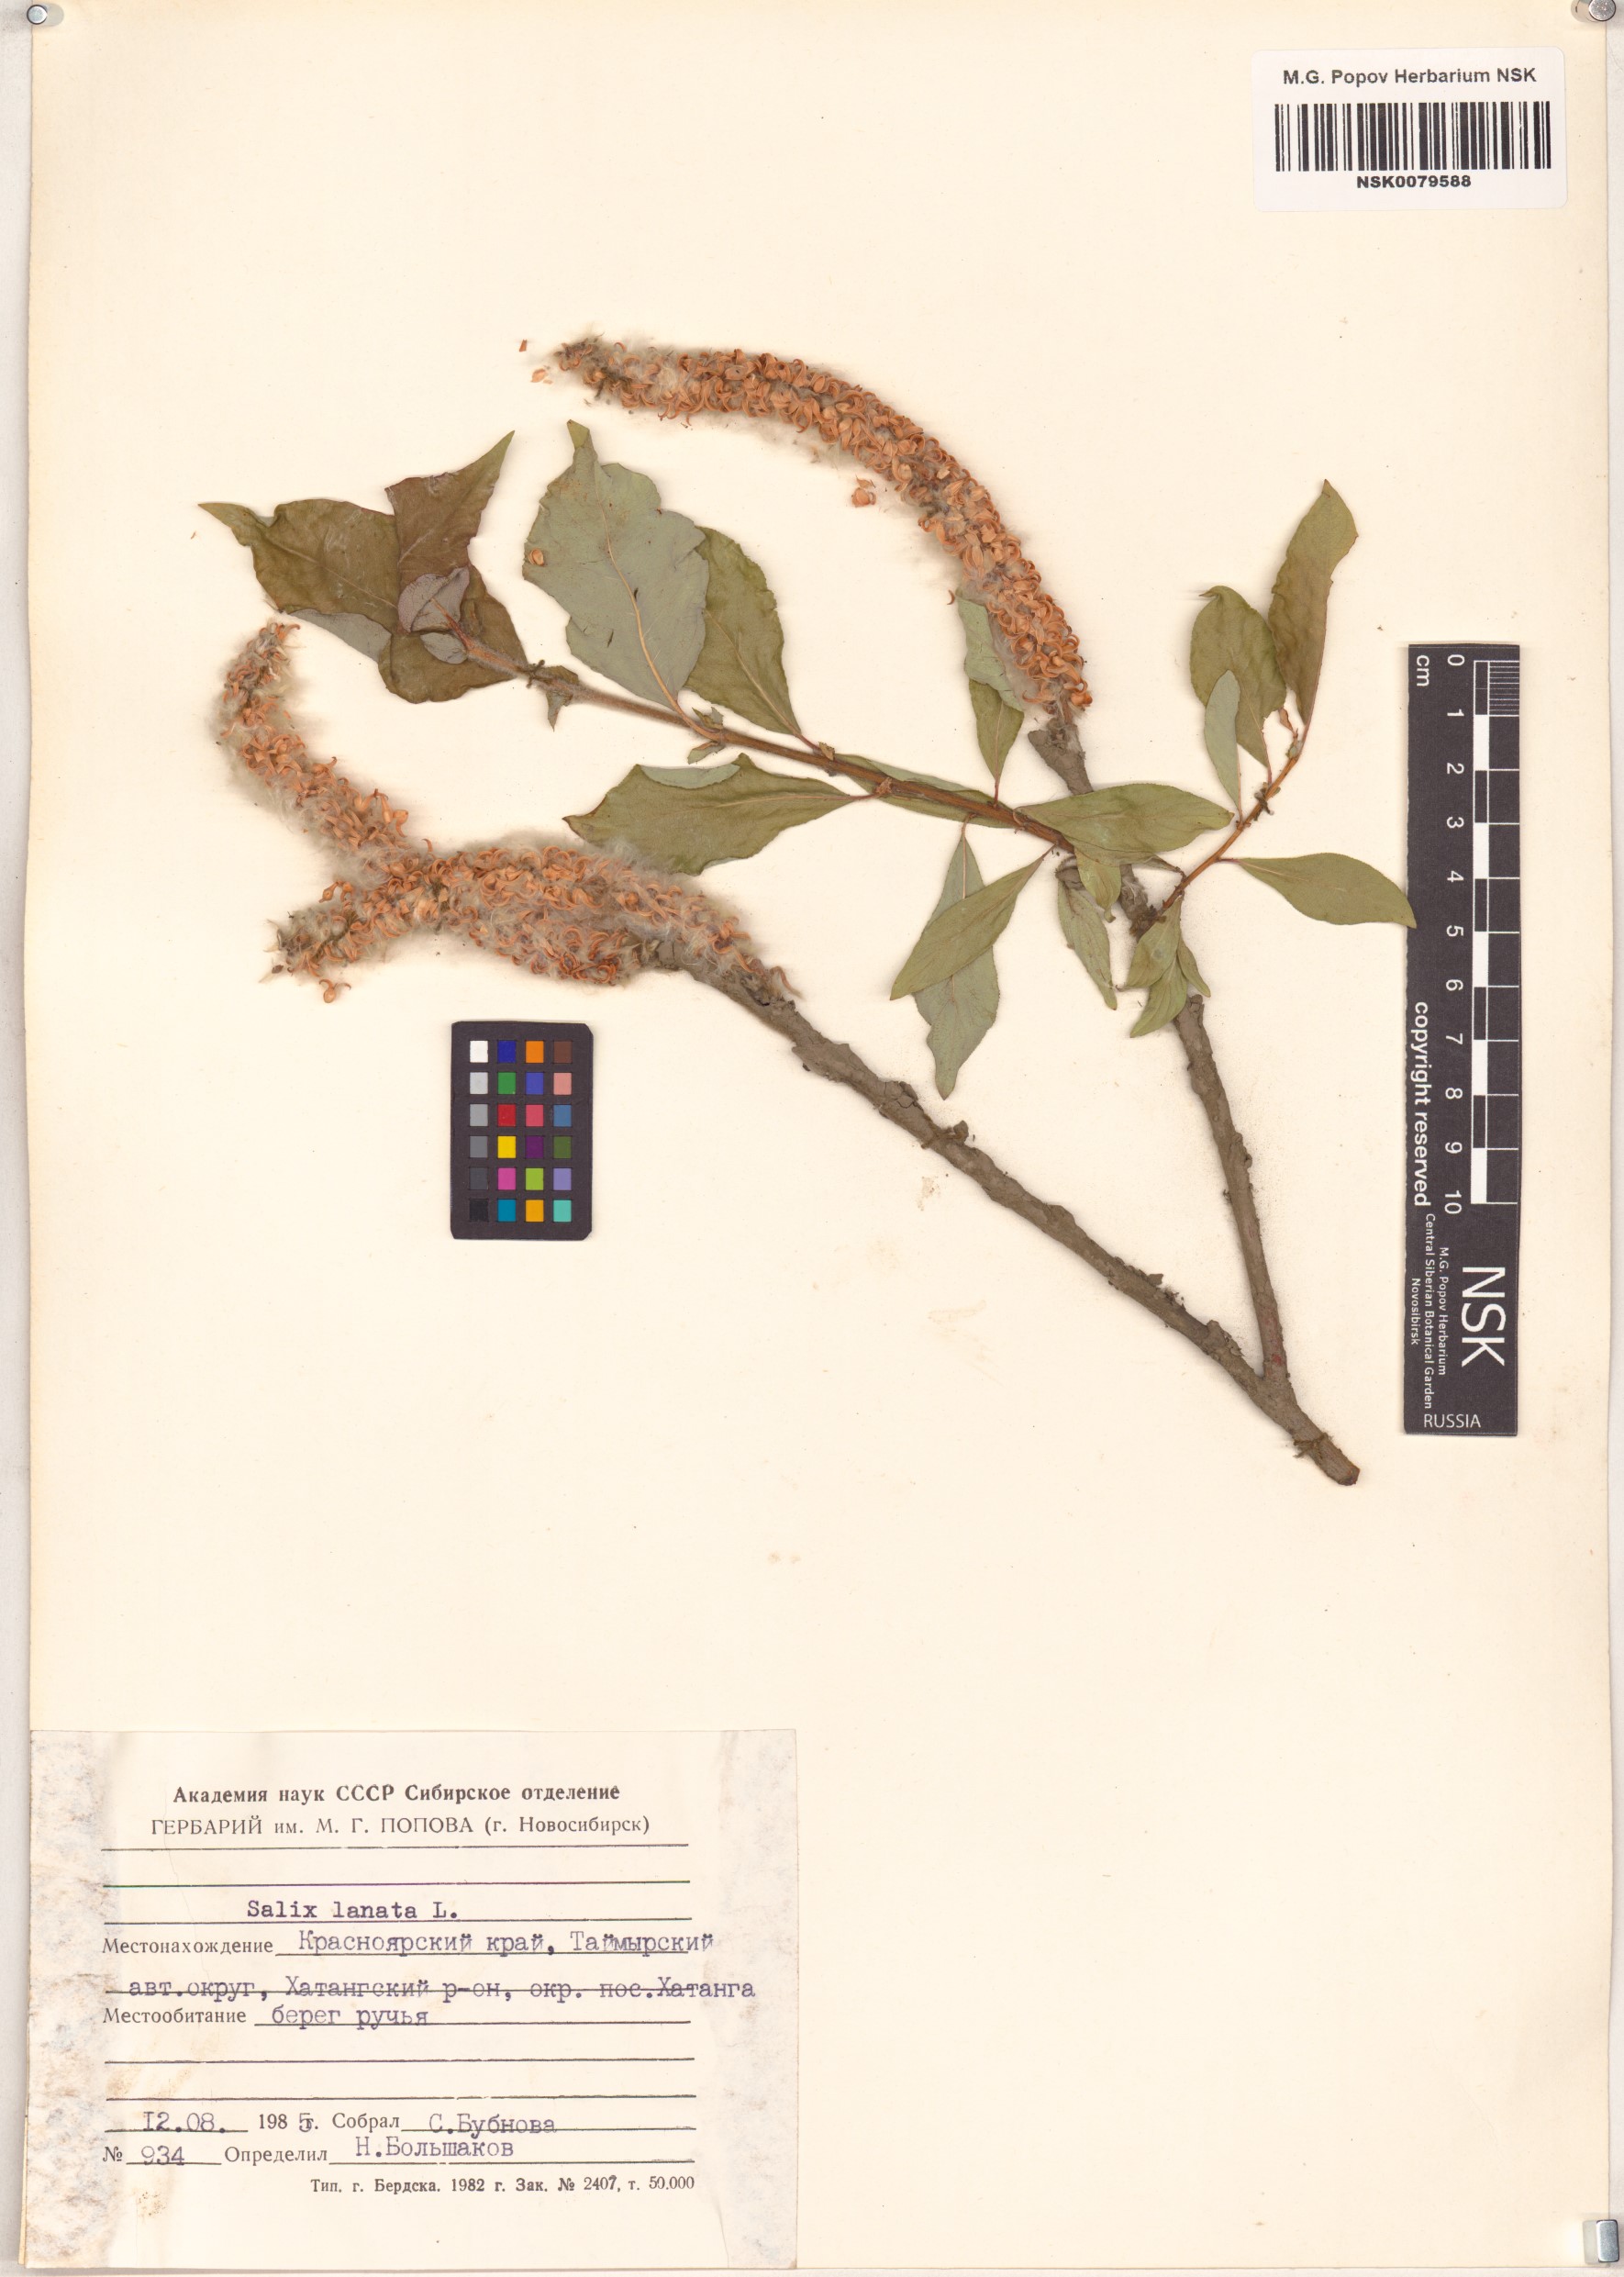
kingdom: Plantae
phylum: Tracheophyta
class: Magnoliopsida
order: Malpighiales
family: Salicaceae
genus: Salix
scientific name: Salix lanata
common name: Woolly willow
